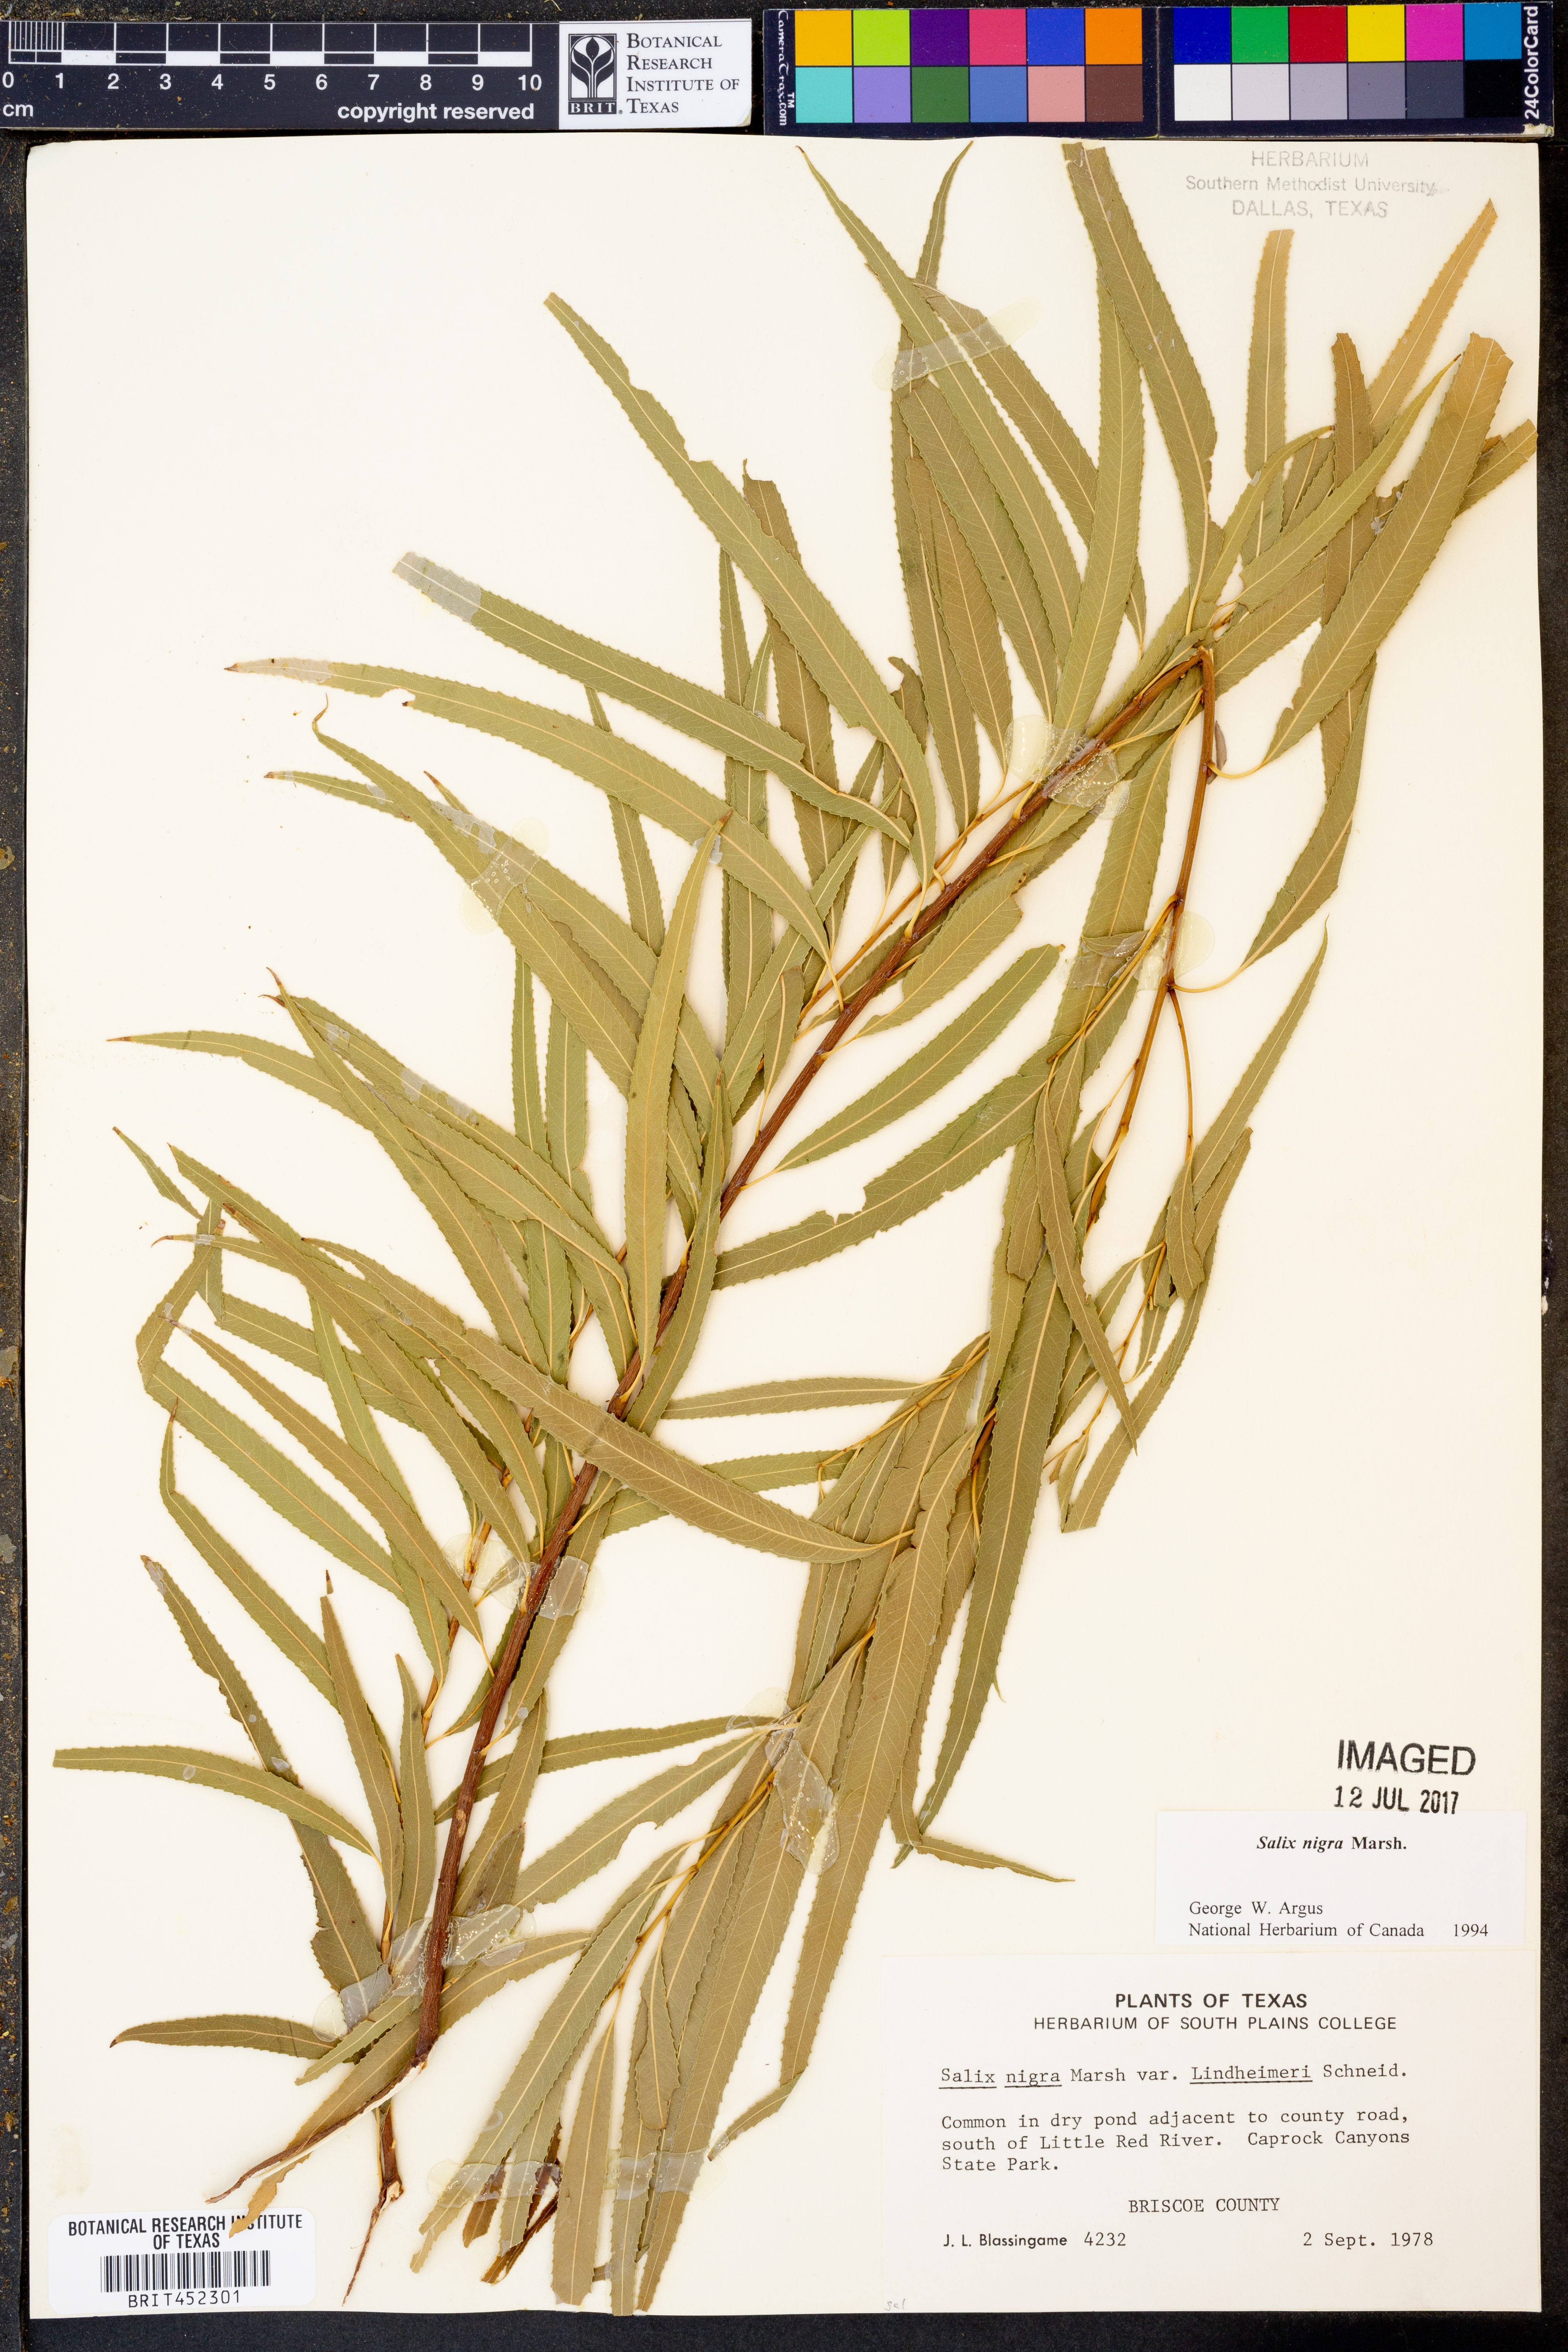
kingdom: Plantae
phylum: Tracheophyta
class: Magnoliopsida
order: Malpighiales
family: Salicaceae
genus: Salix
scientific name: Salix nigra
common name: Black willow
